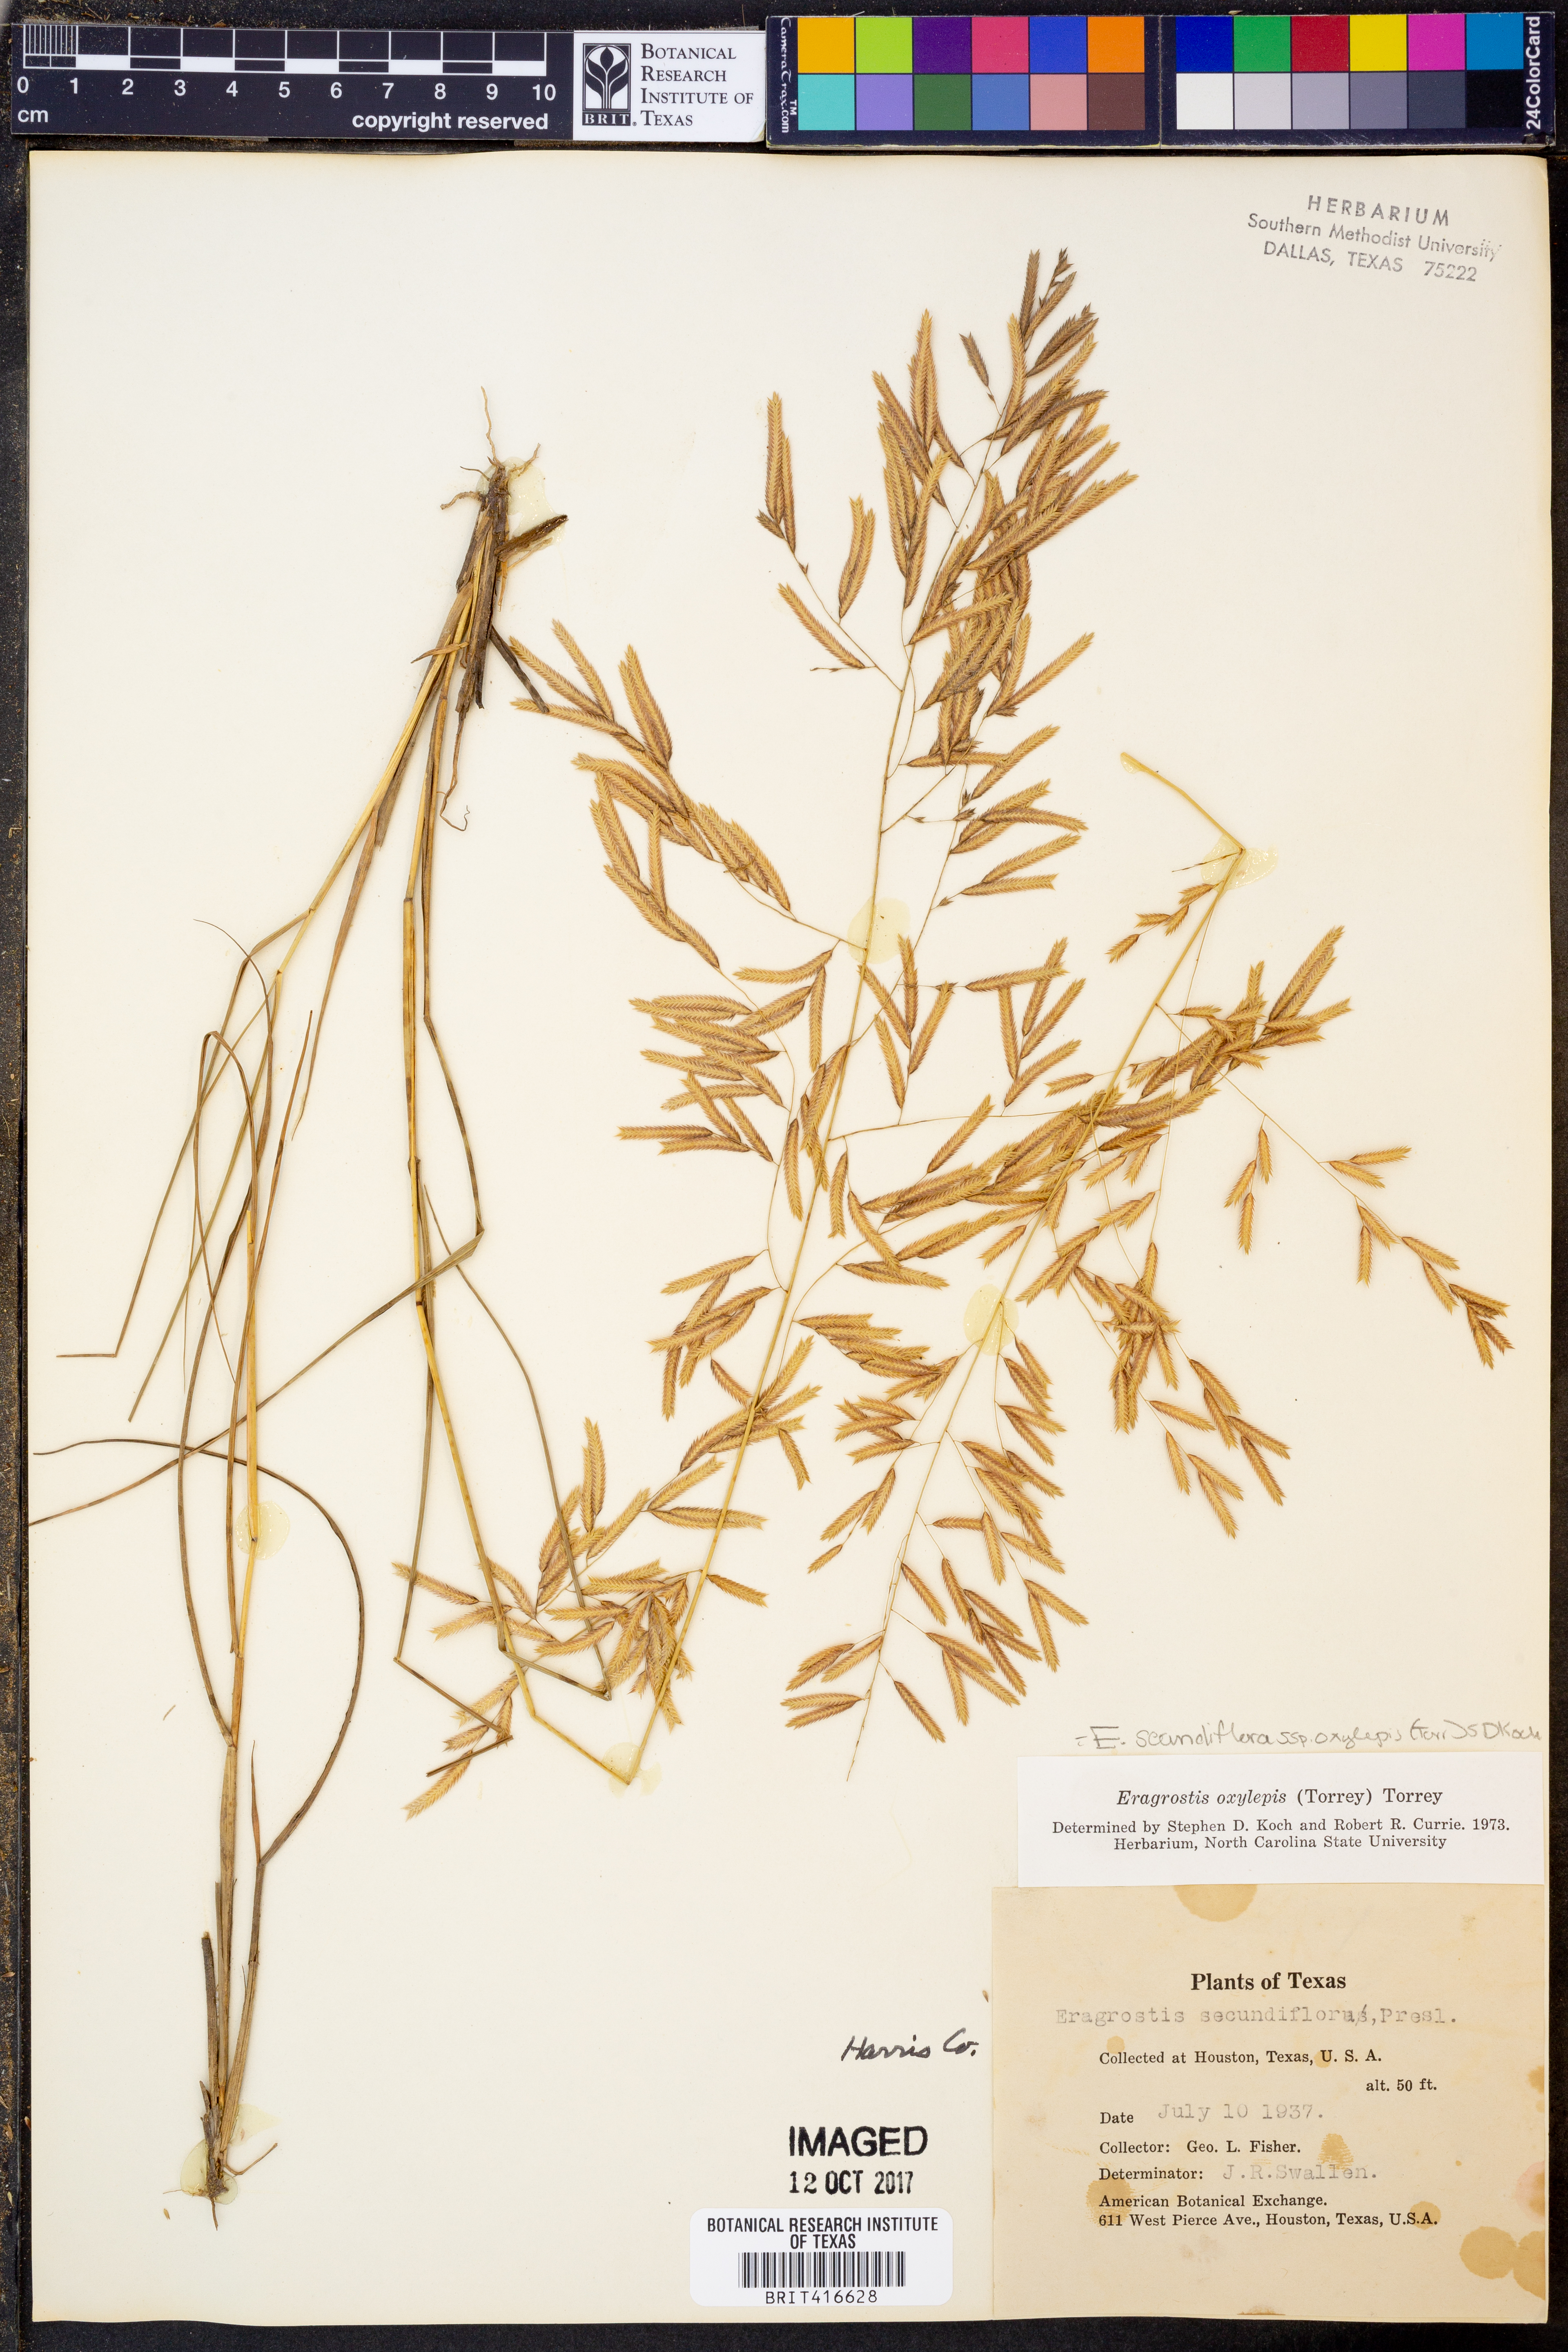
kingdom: Plantae
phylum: Tracheophyta
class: Liliopsida
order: Poales
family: Poaceae
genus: Eragrostis
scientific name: Eragrostis secundiflora
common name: Red love grass
